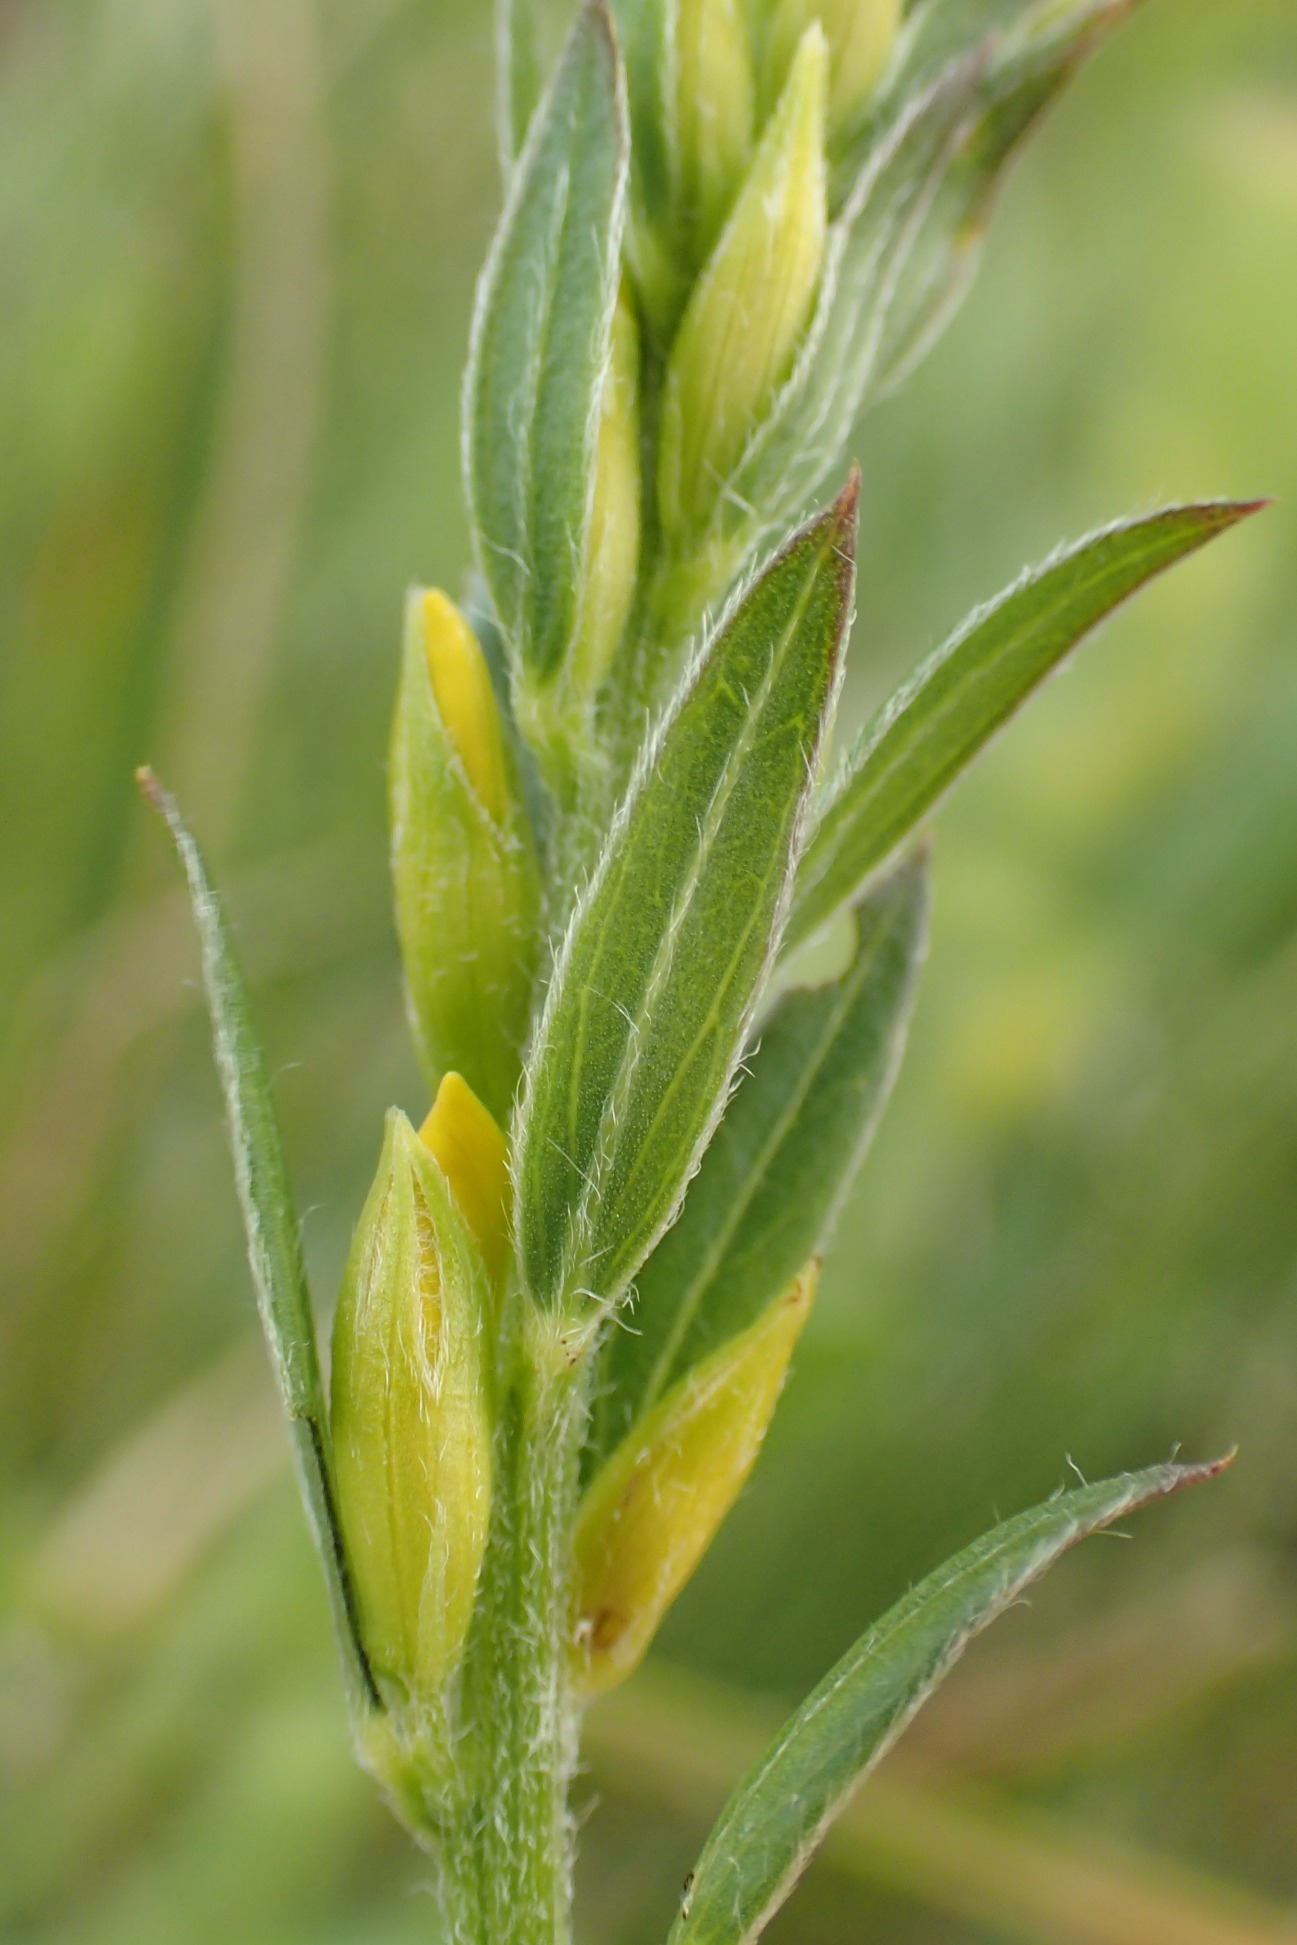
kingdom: Plantae
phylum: Tracheophyta
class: Magnoliopsida
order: Fabales
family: Fabaceae
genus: Genista
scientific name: Genista tinctoria
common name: Farve-visse
